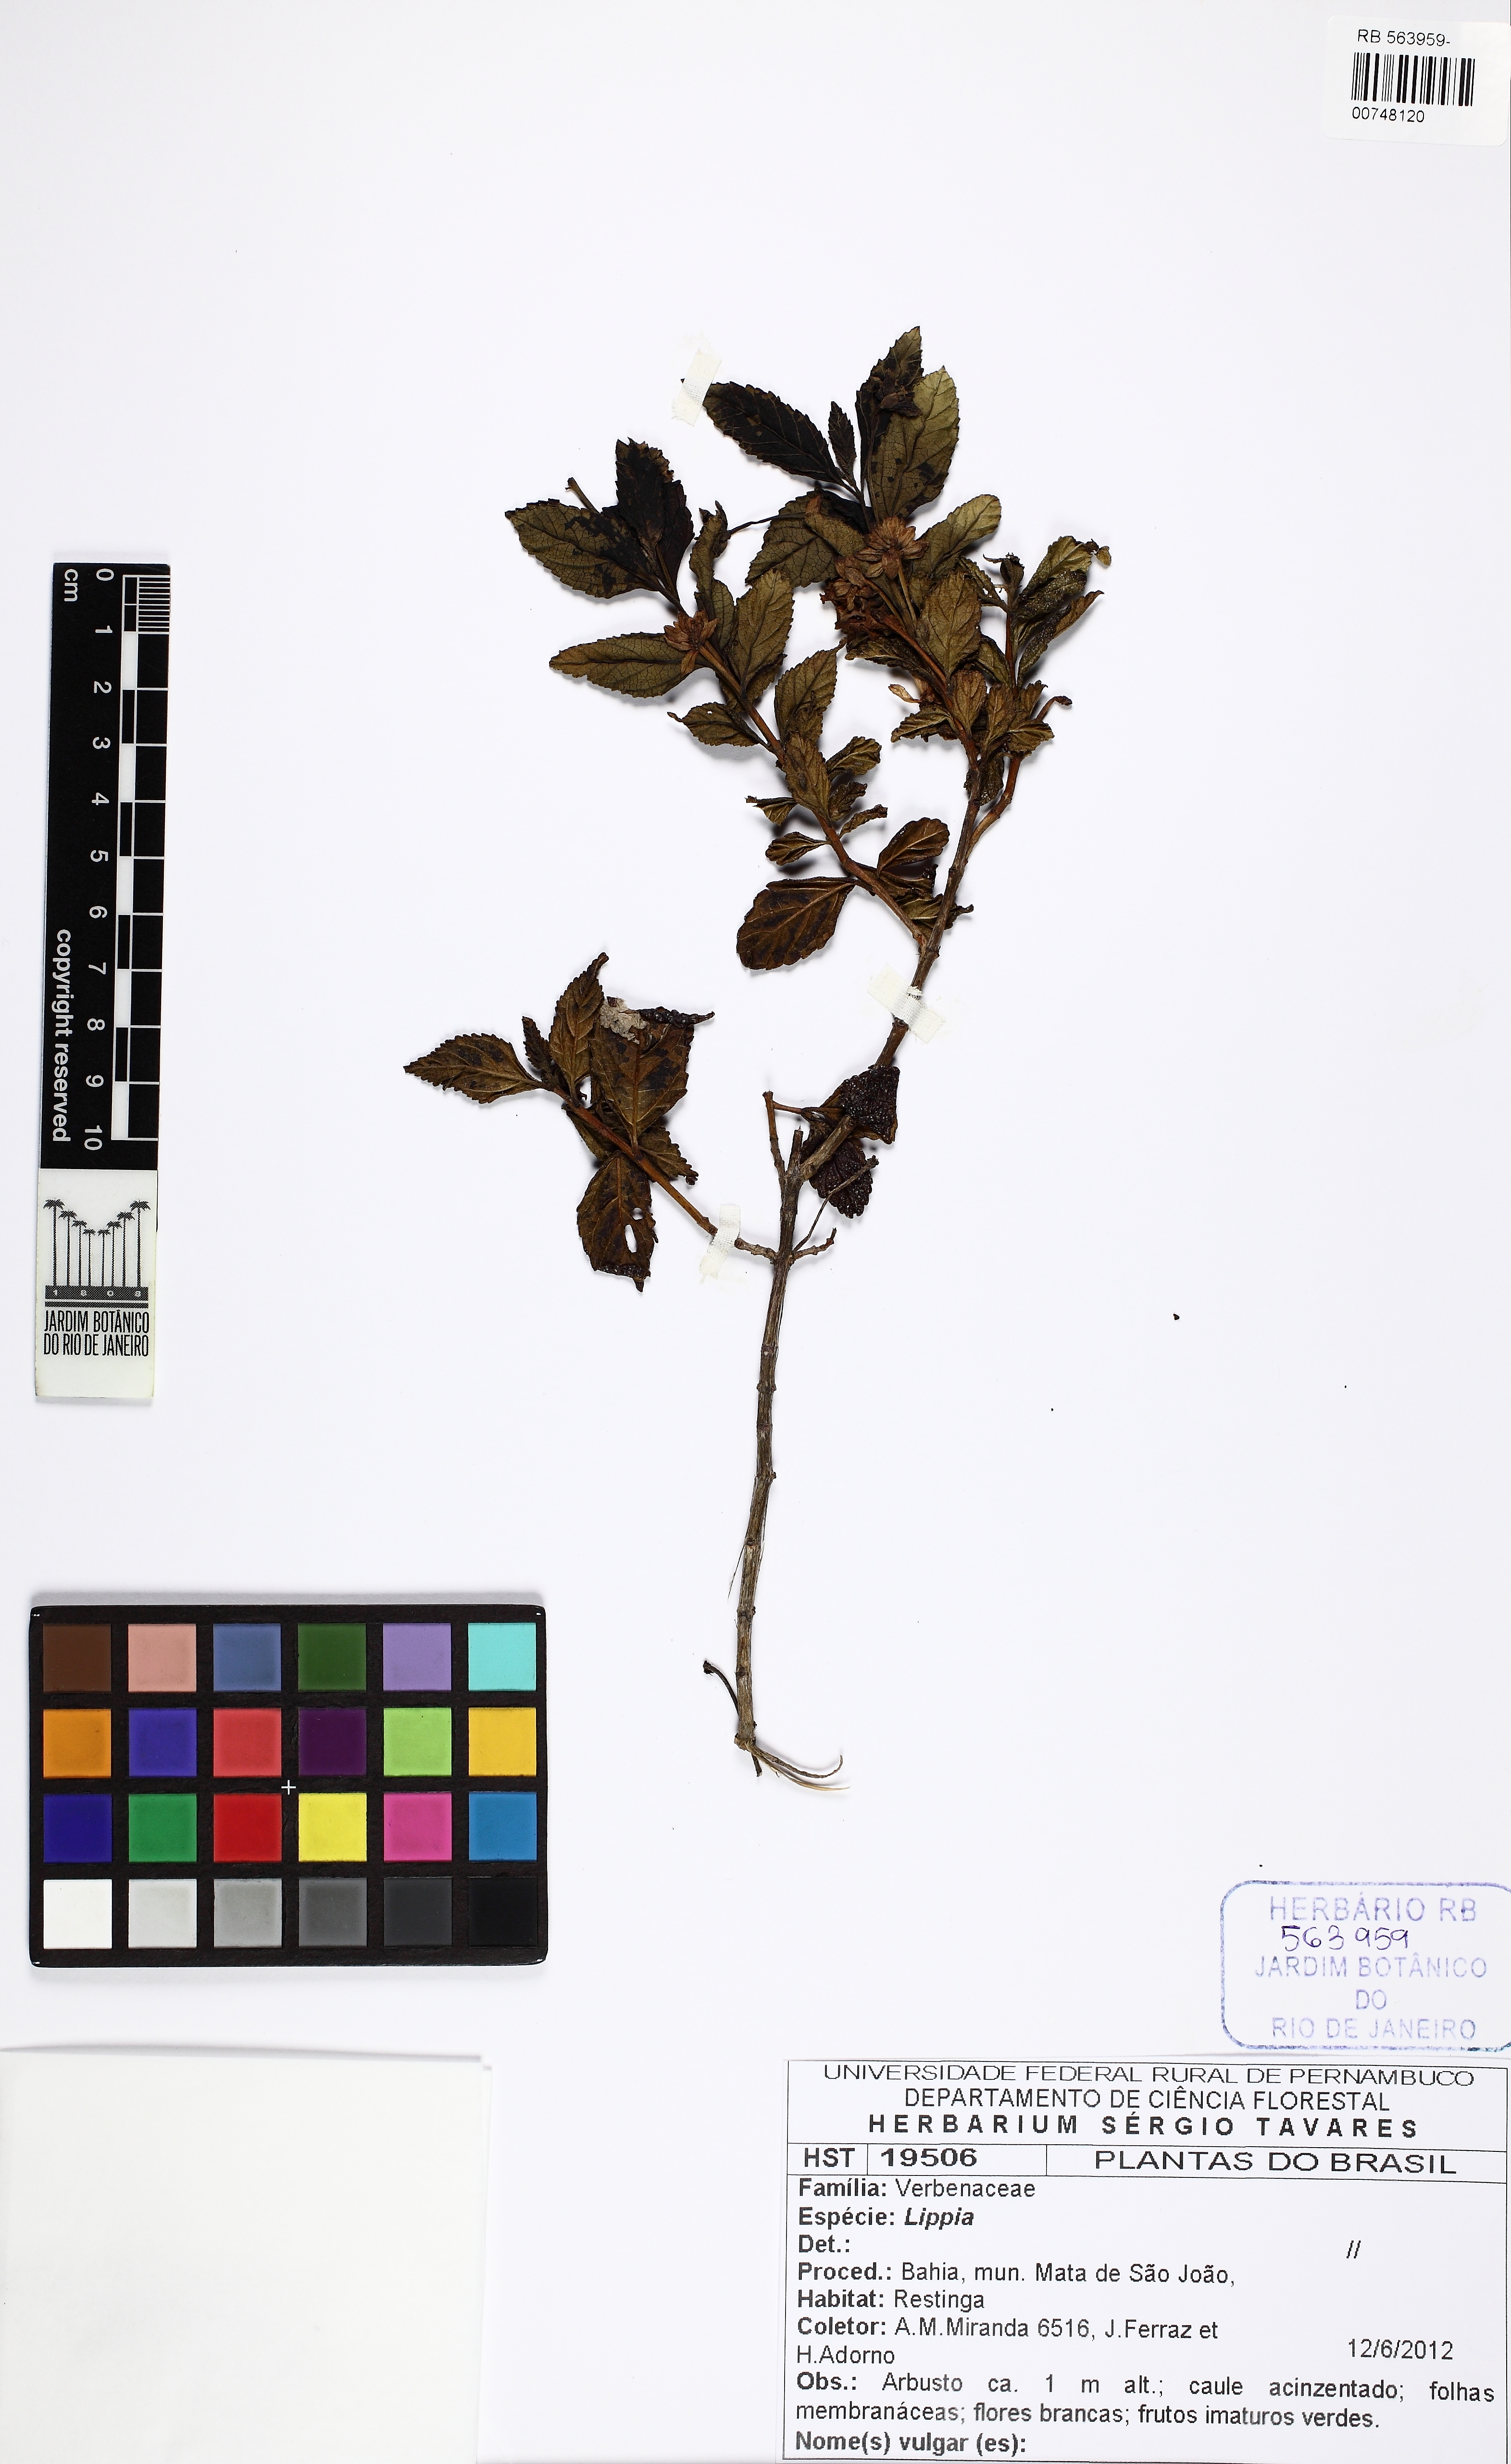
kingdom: Plantae
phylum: Tracheophyta
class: Magnoliopsida
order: Lamiales
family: Verbenaceae
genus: Lippia
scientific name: Lippia
